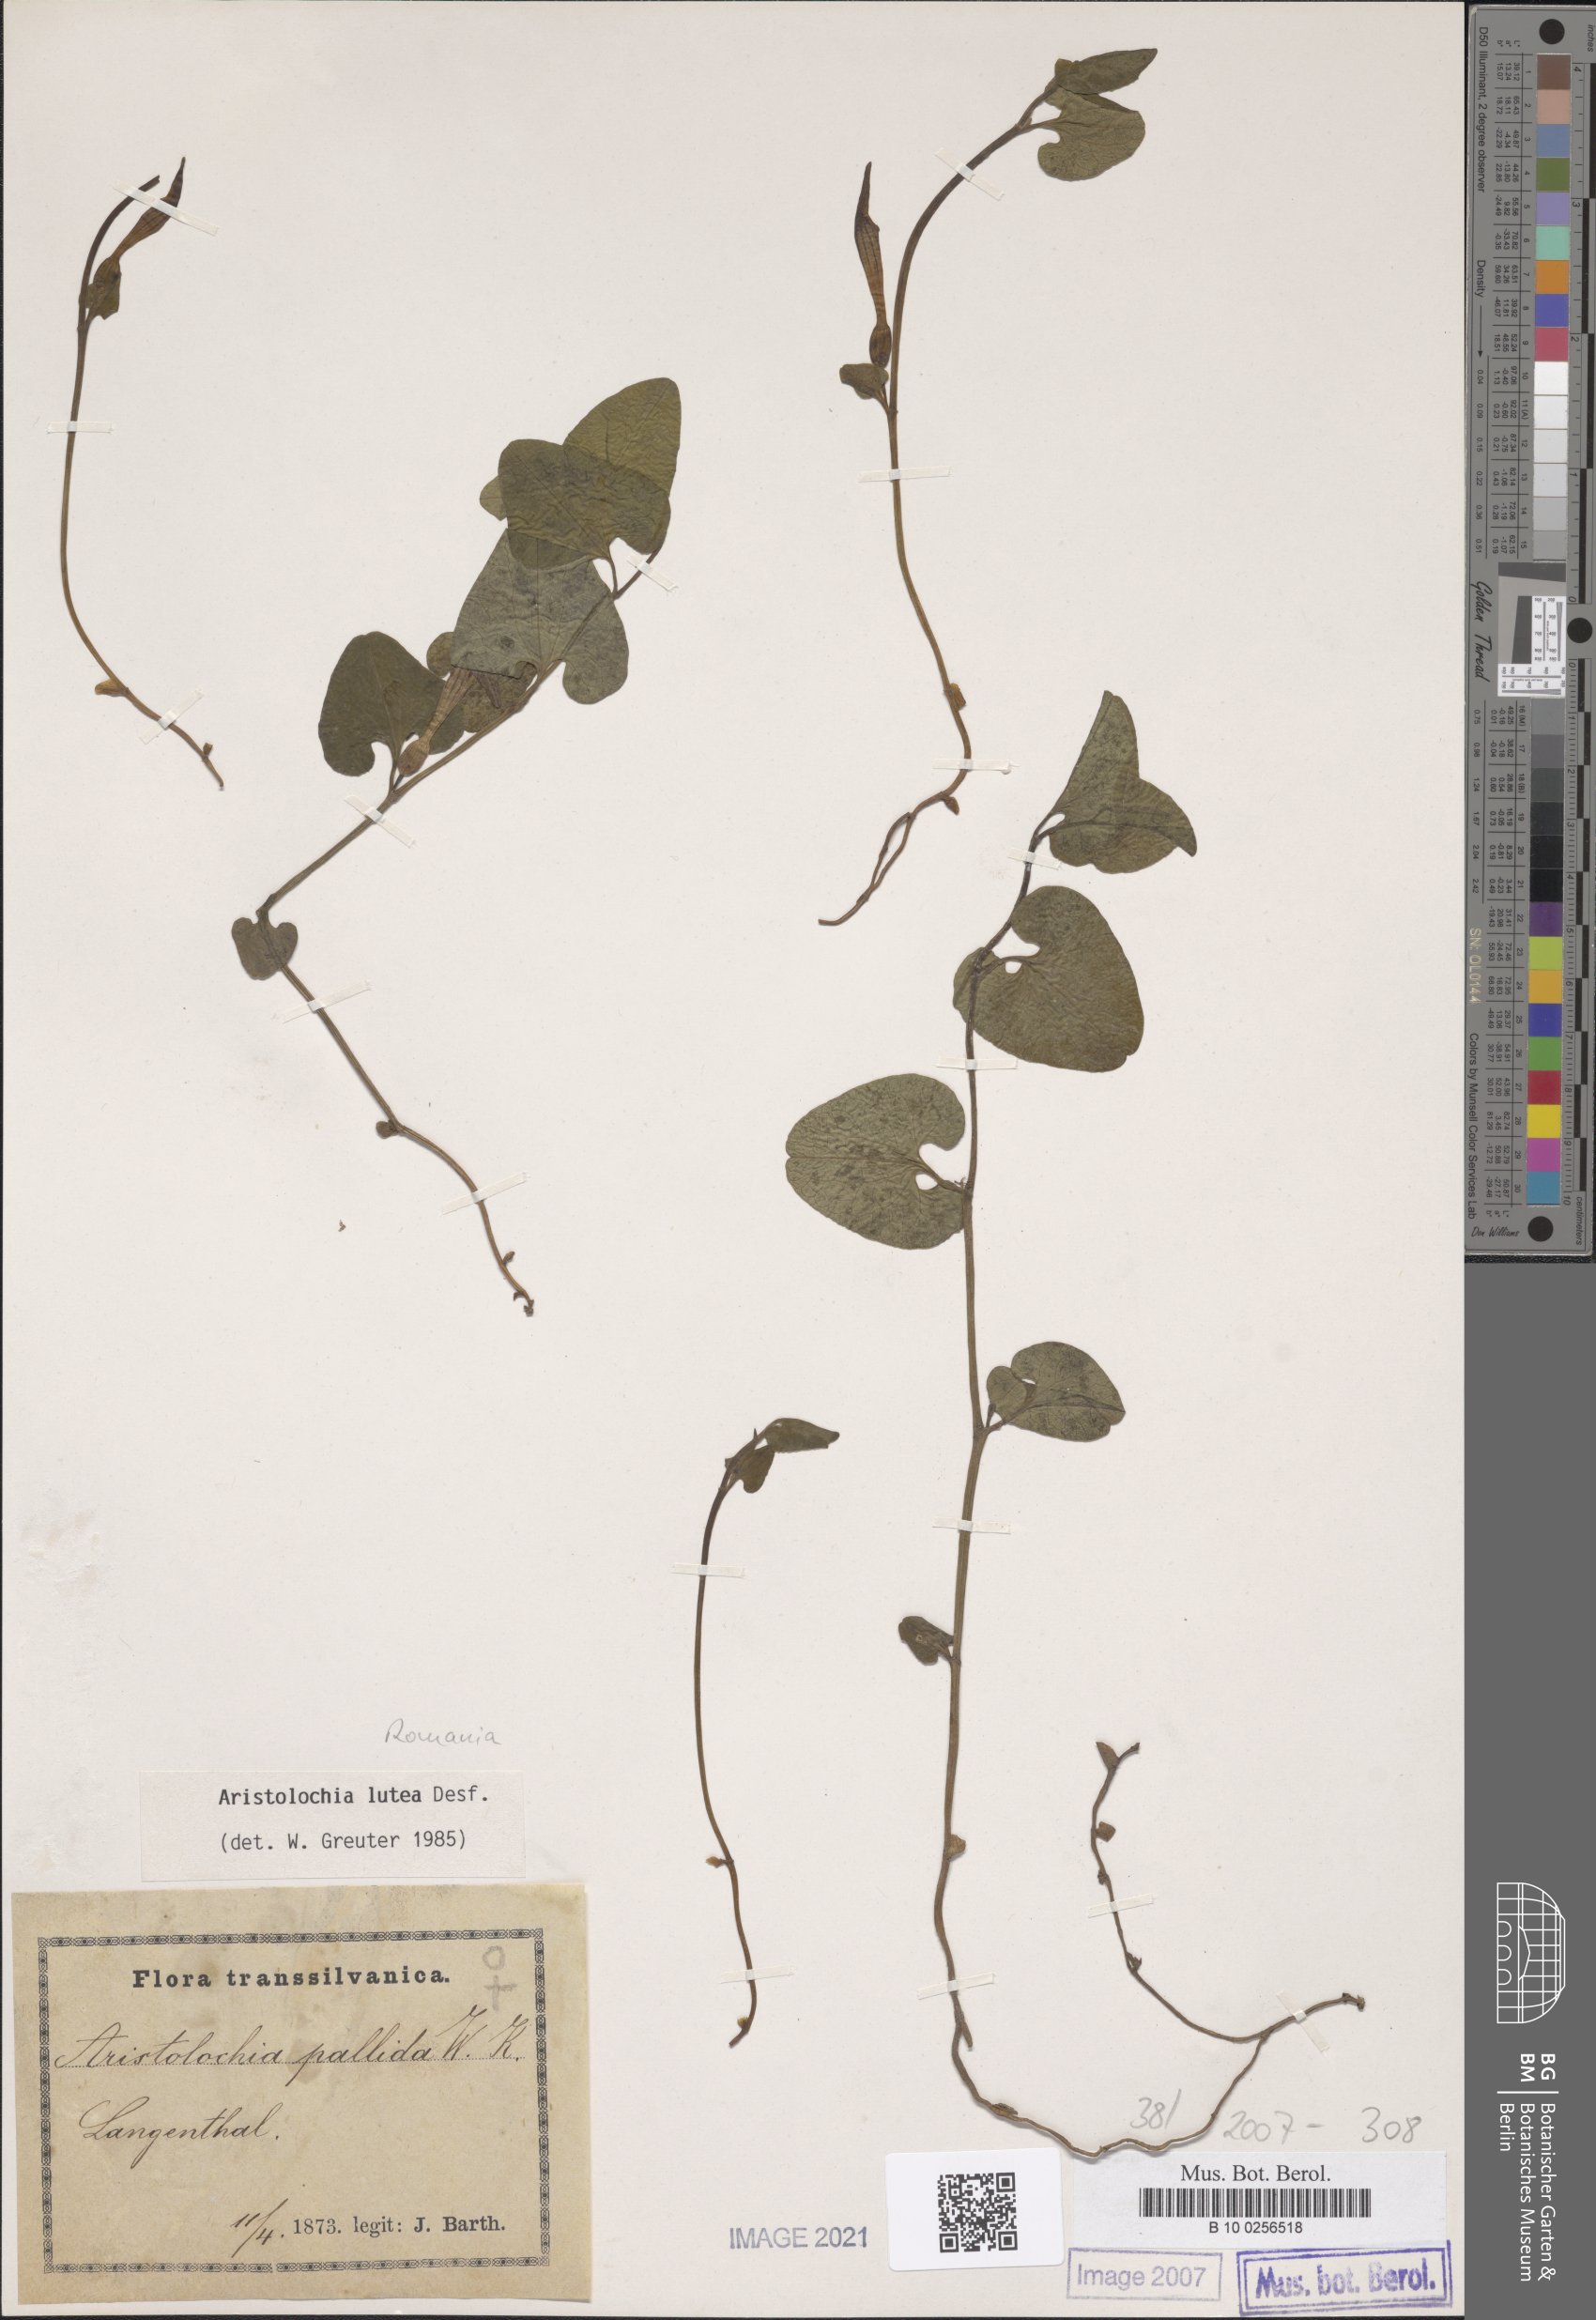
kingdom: Plantae
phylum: Tracheophyta
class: Magnoliopsida
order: Piperales
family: Aristolochiaceae
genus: Aristolochia
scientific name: Aristolochia lutea
